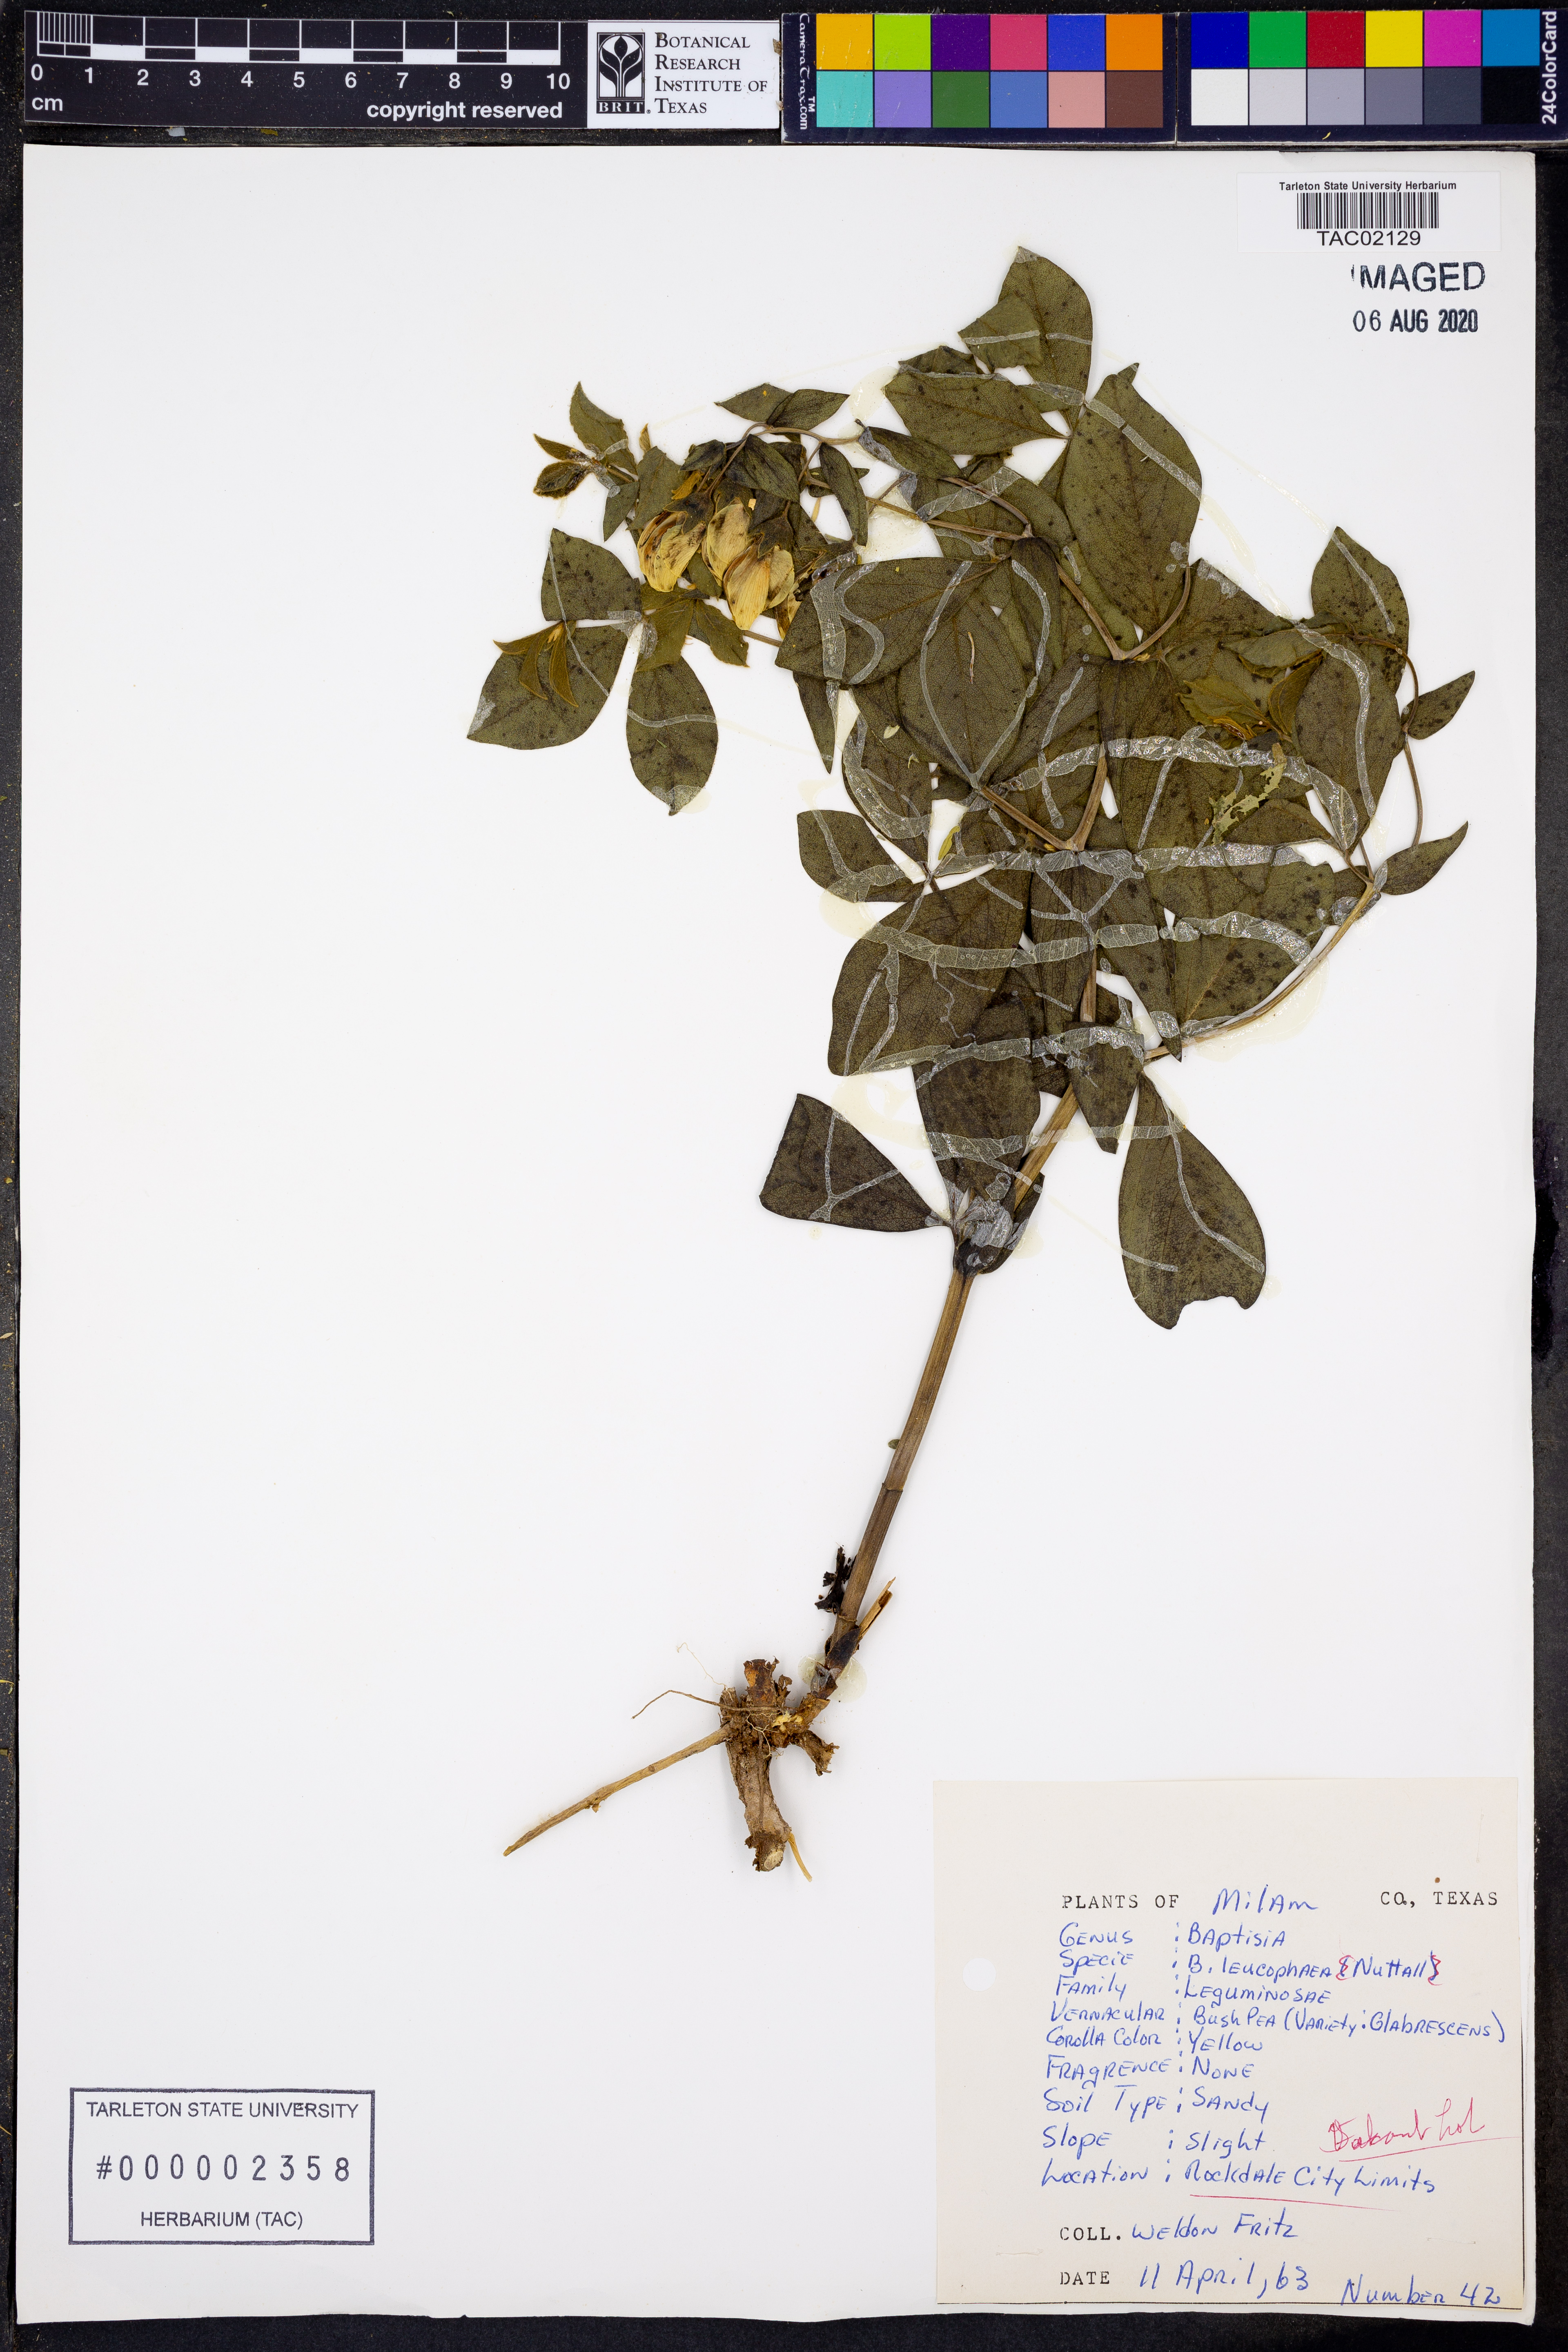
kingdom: Plantae
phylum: Tracheophyta
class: Magnoliopsida
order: Fabales
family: Fabaceae
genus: Baptisia
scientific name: Baptisia bracteata
